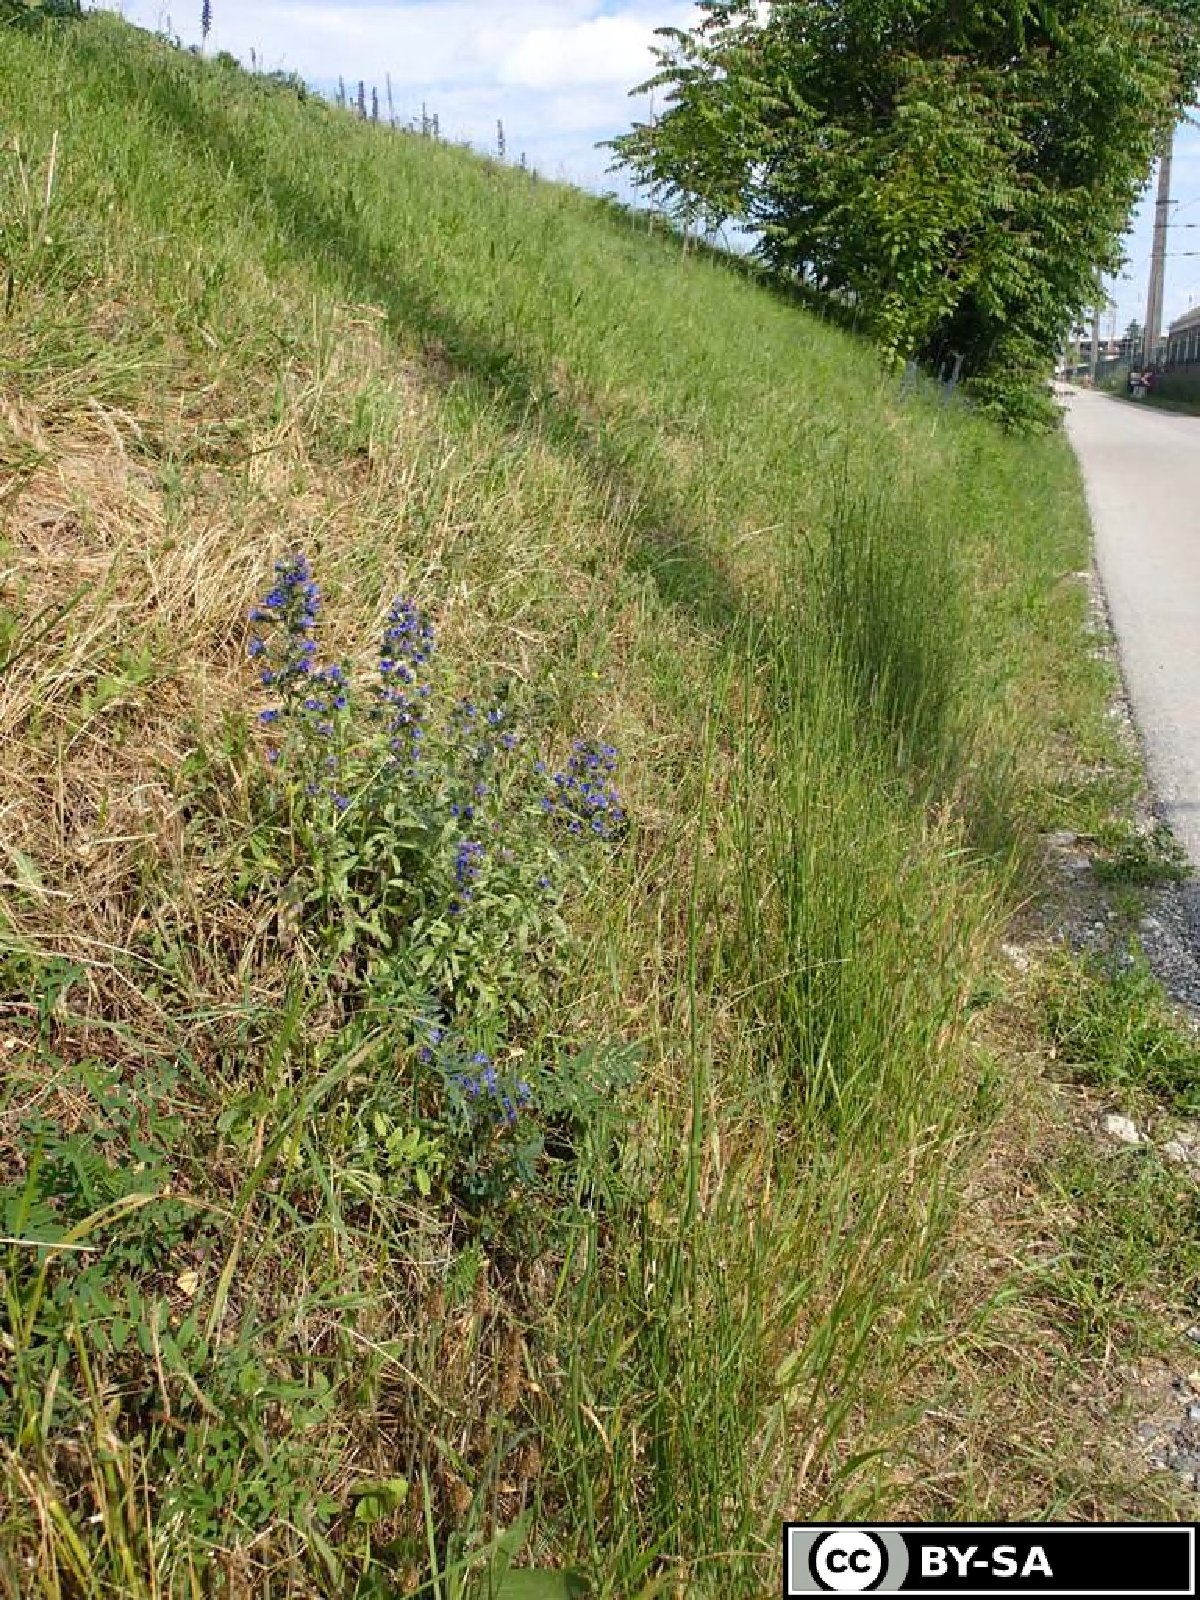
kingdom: Plantae
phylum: Tracheophyta
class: Magnoliopsida
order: Malpighiales
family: Euphorbiaceae
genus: Euphorbia
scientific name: Euphorbia saratoi
